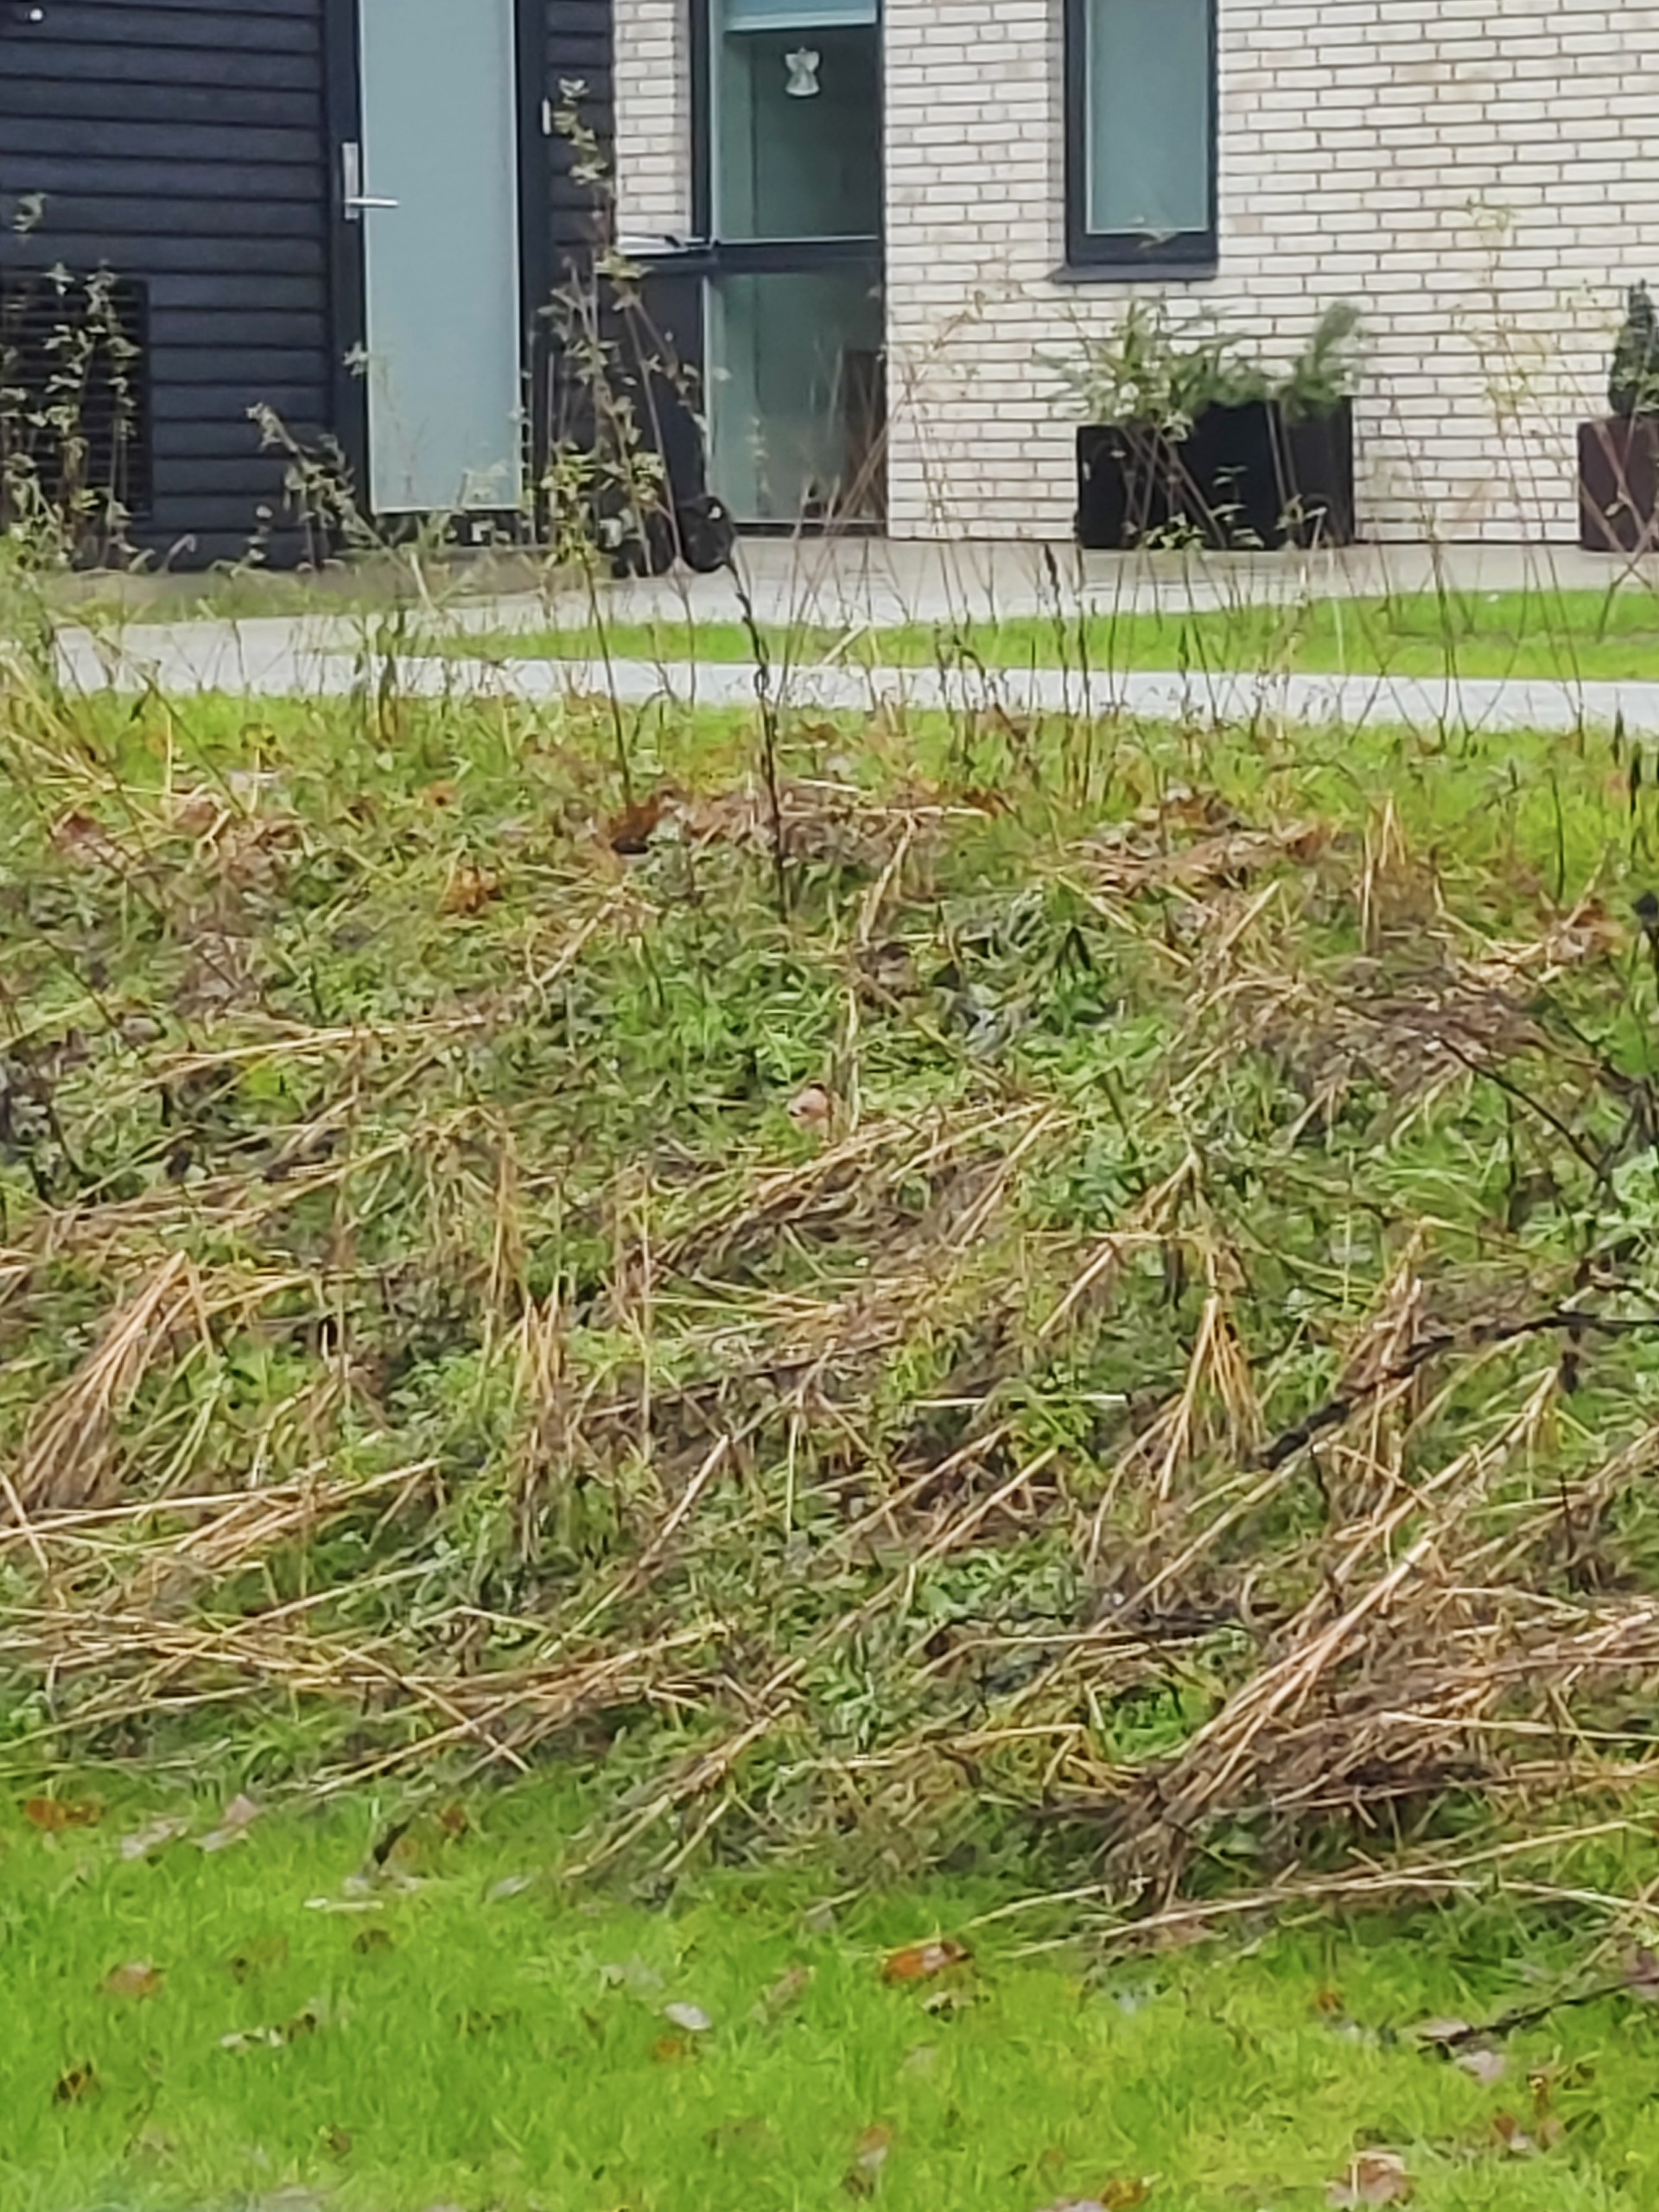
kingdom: Animalia
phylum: Chordata
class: Aves
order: Passeriformes
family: Fringillidae
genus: Pyrrhula
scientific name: Pyrrhula pyrrhula
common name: Dompap
